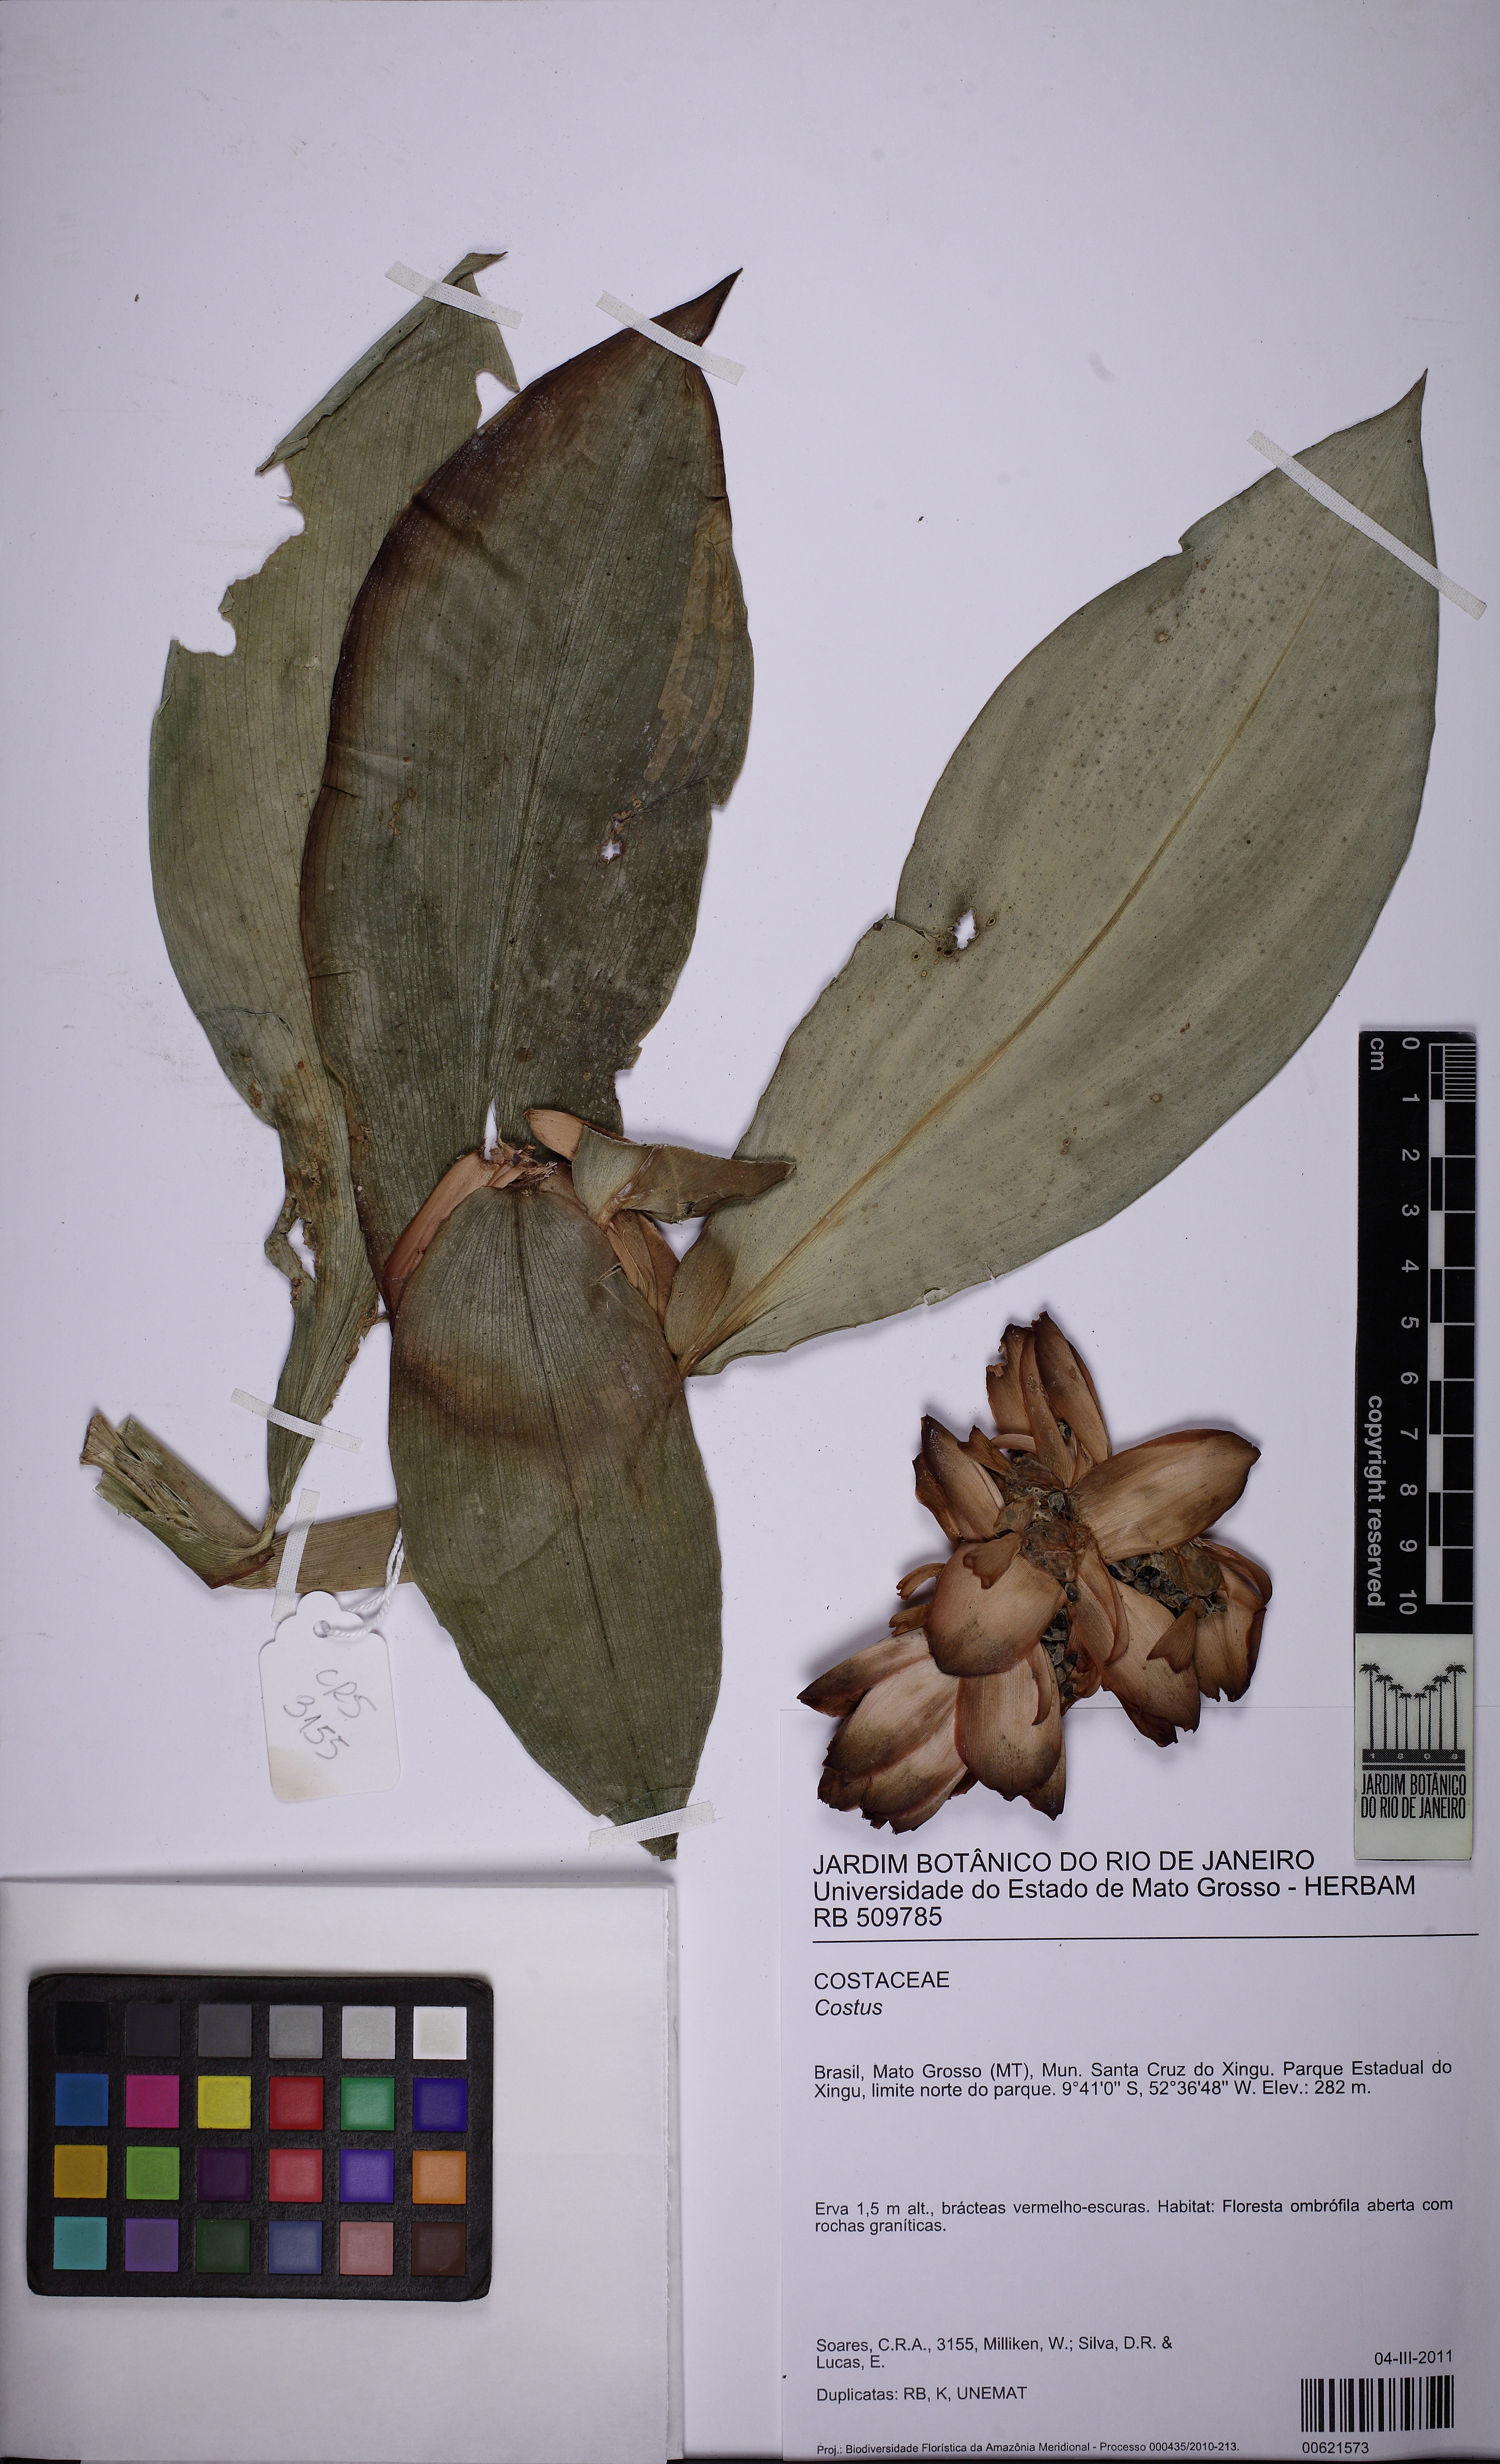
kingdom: Plantae
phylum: Tracheophyta
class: Liliopsida
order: Zingiberales
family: Costaceae
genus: Costus
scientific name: Costus spiralis
